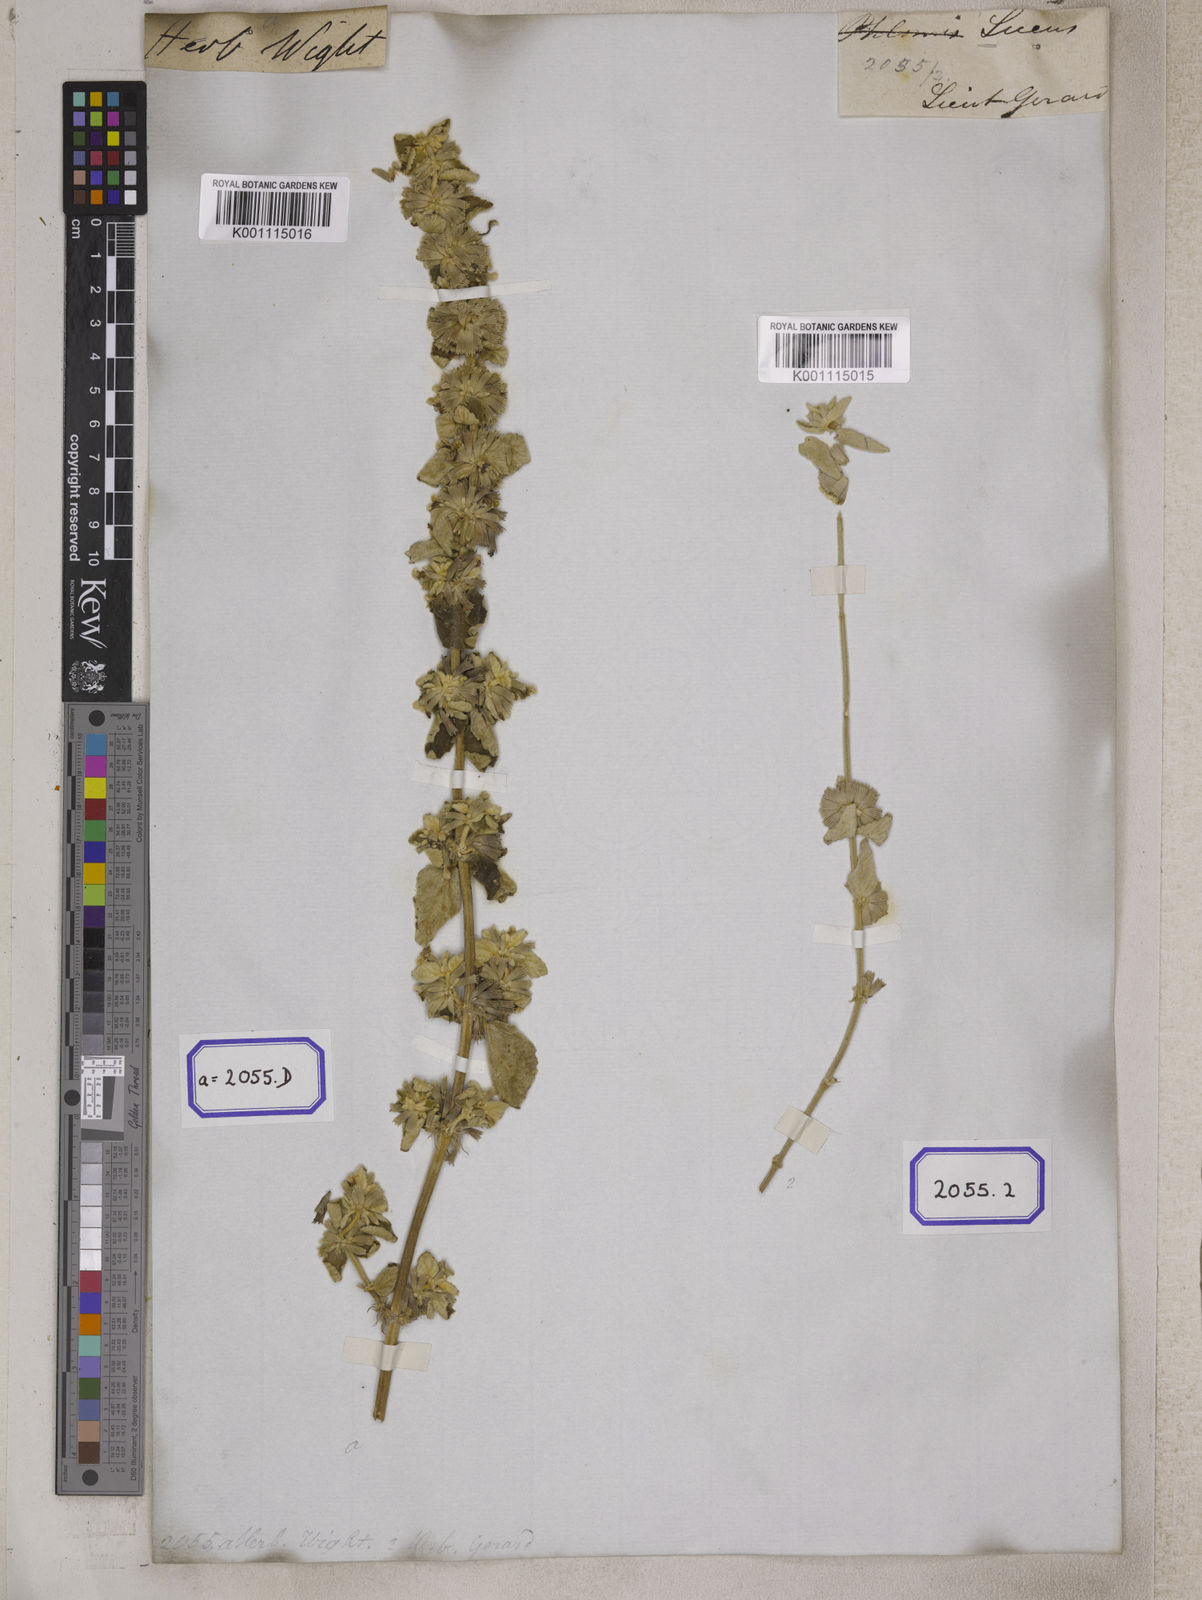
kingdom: Plantae
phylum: Tracheophyta
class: Magnoliopsida
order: Lamiales
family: Lamiaceae
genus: Leucas
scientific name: Leucas lanata
